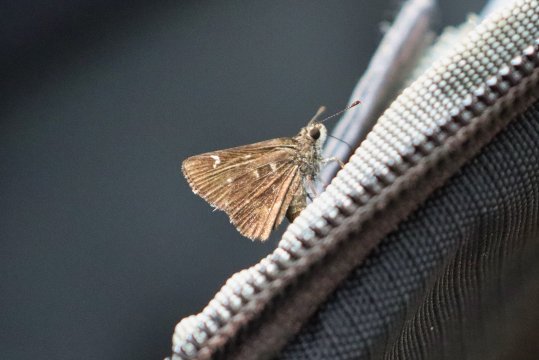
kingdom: Animalia
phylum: Arthropoda
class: Insecta
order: Lepidoptera
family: Hesperiidae
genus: Amblyscirtes
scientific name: Amblyscirtes
